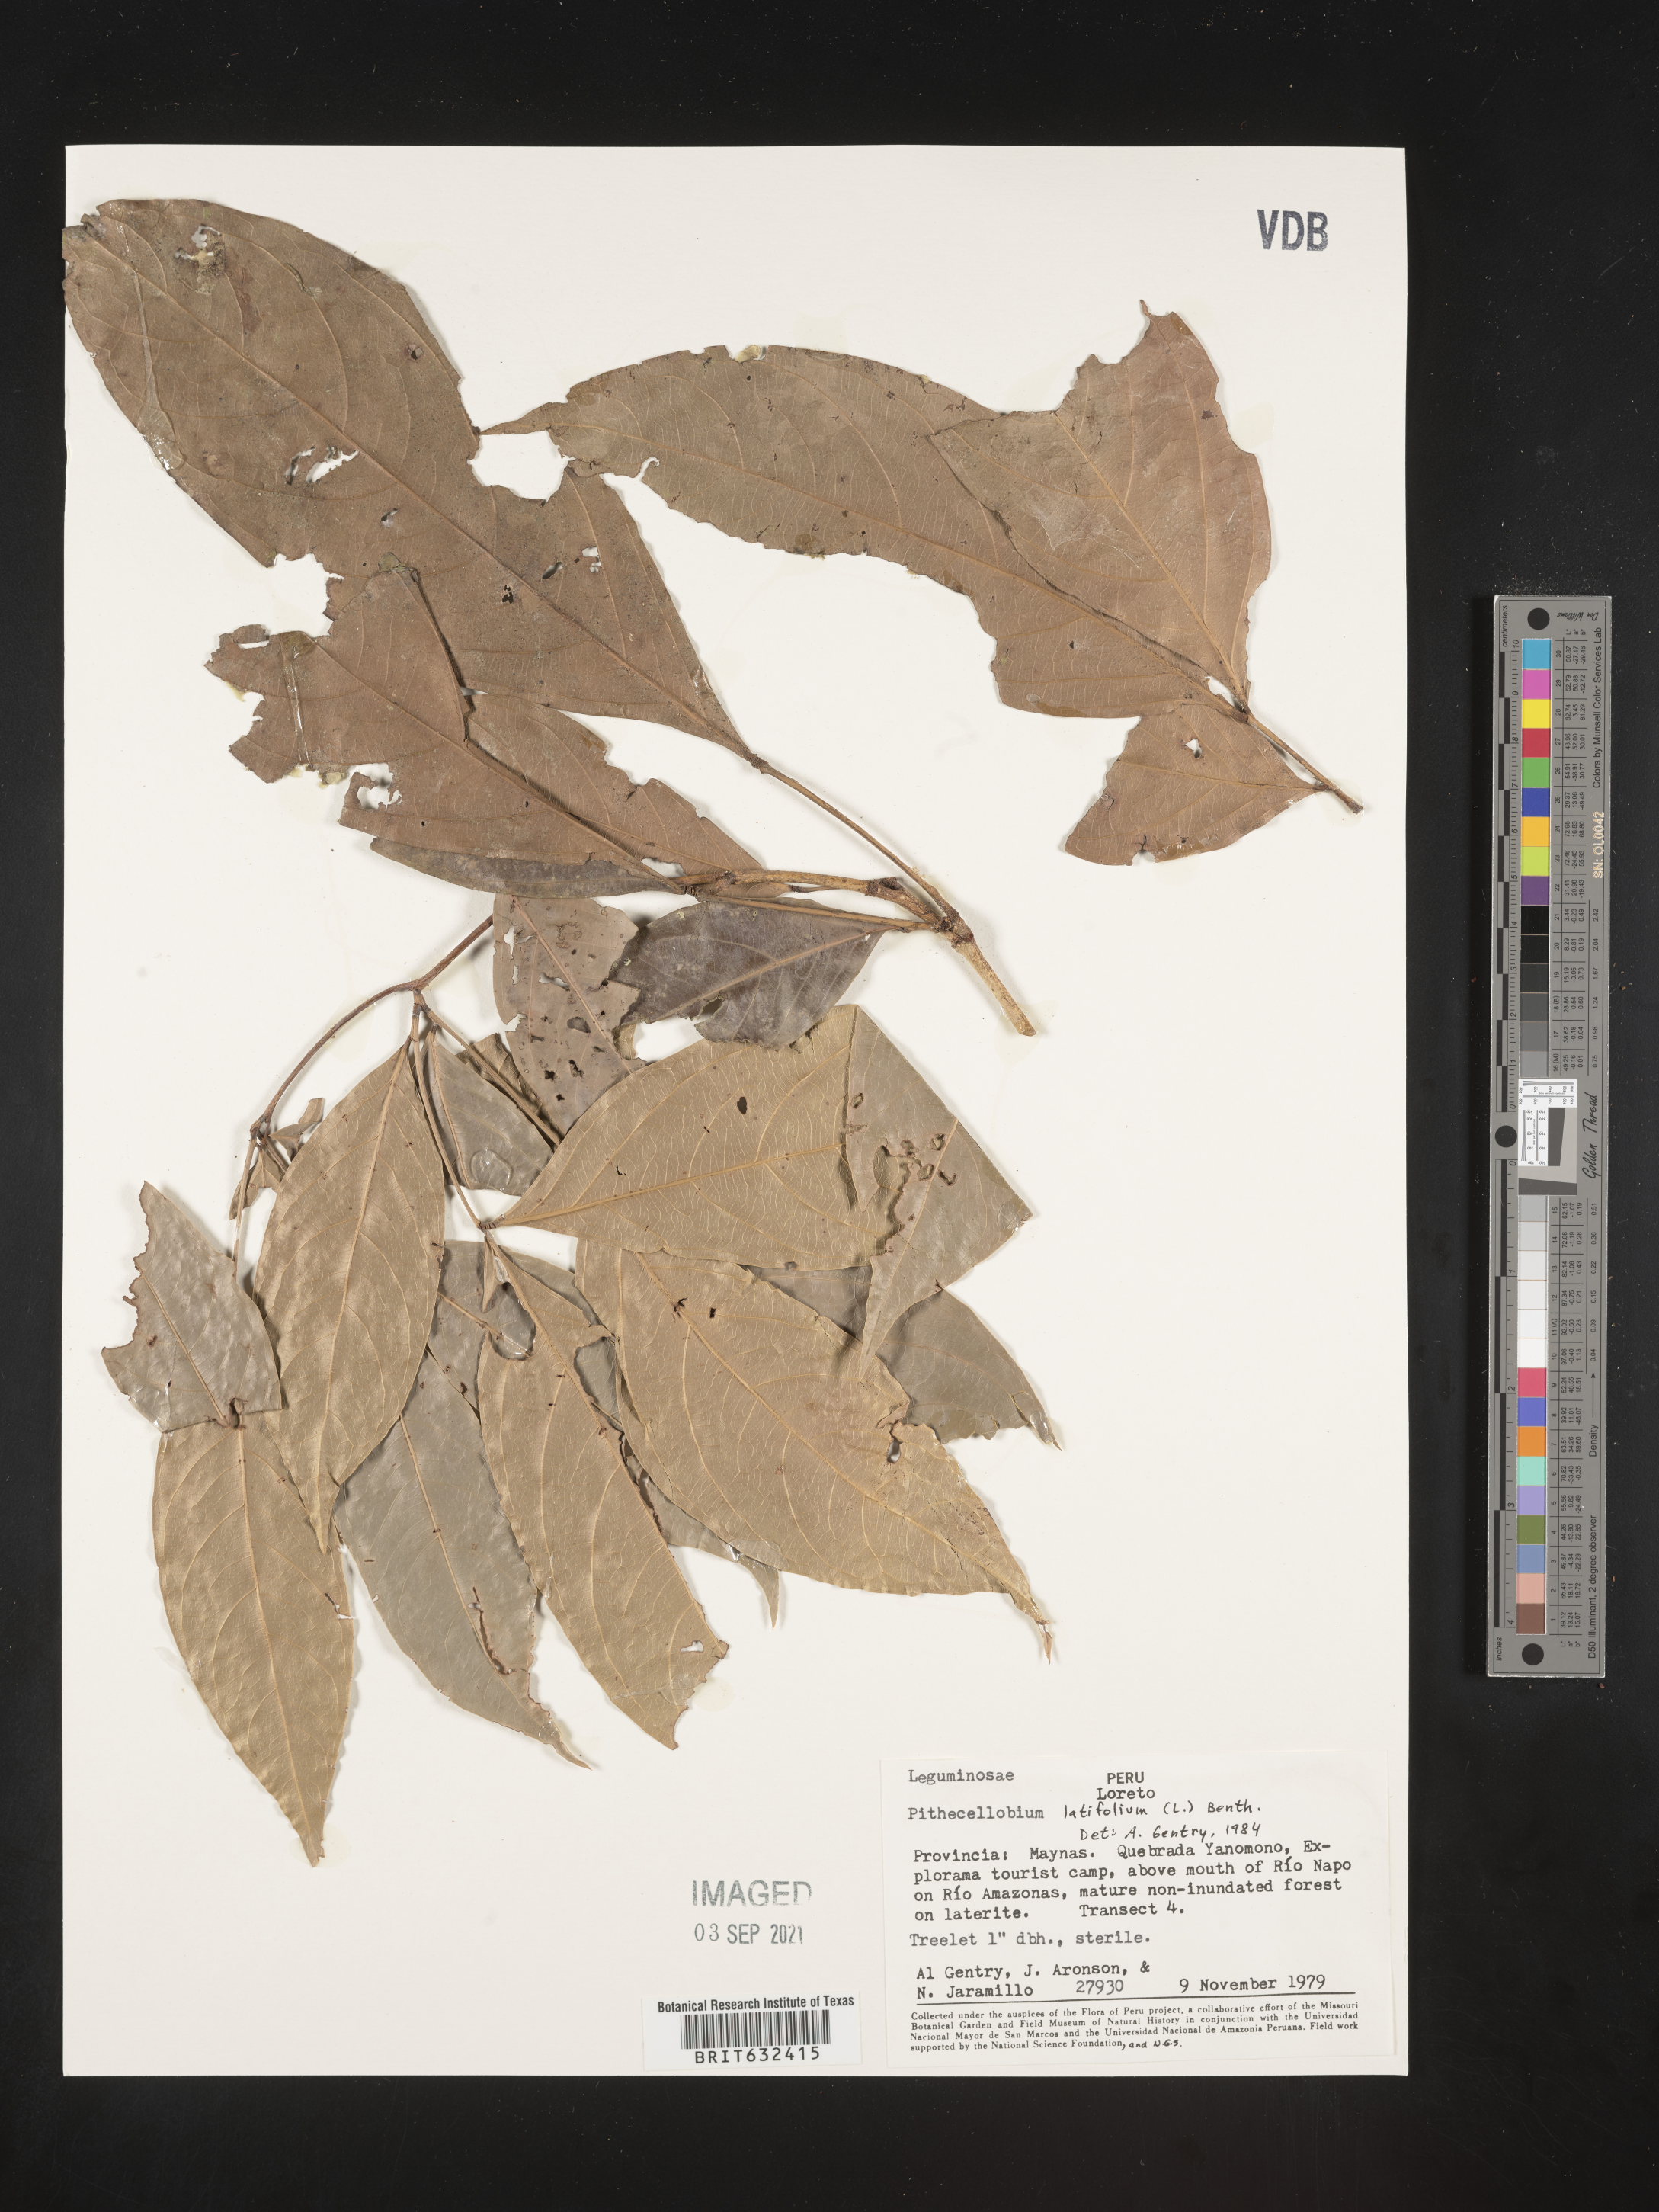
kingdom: Plantae
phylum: Tracheophyta
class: Magnoliopsida
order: Fabales
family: Fabaceae
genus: Pithecellobium
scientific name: Pithecellobium
